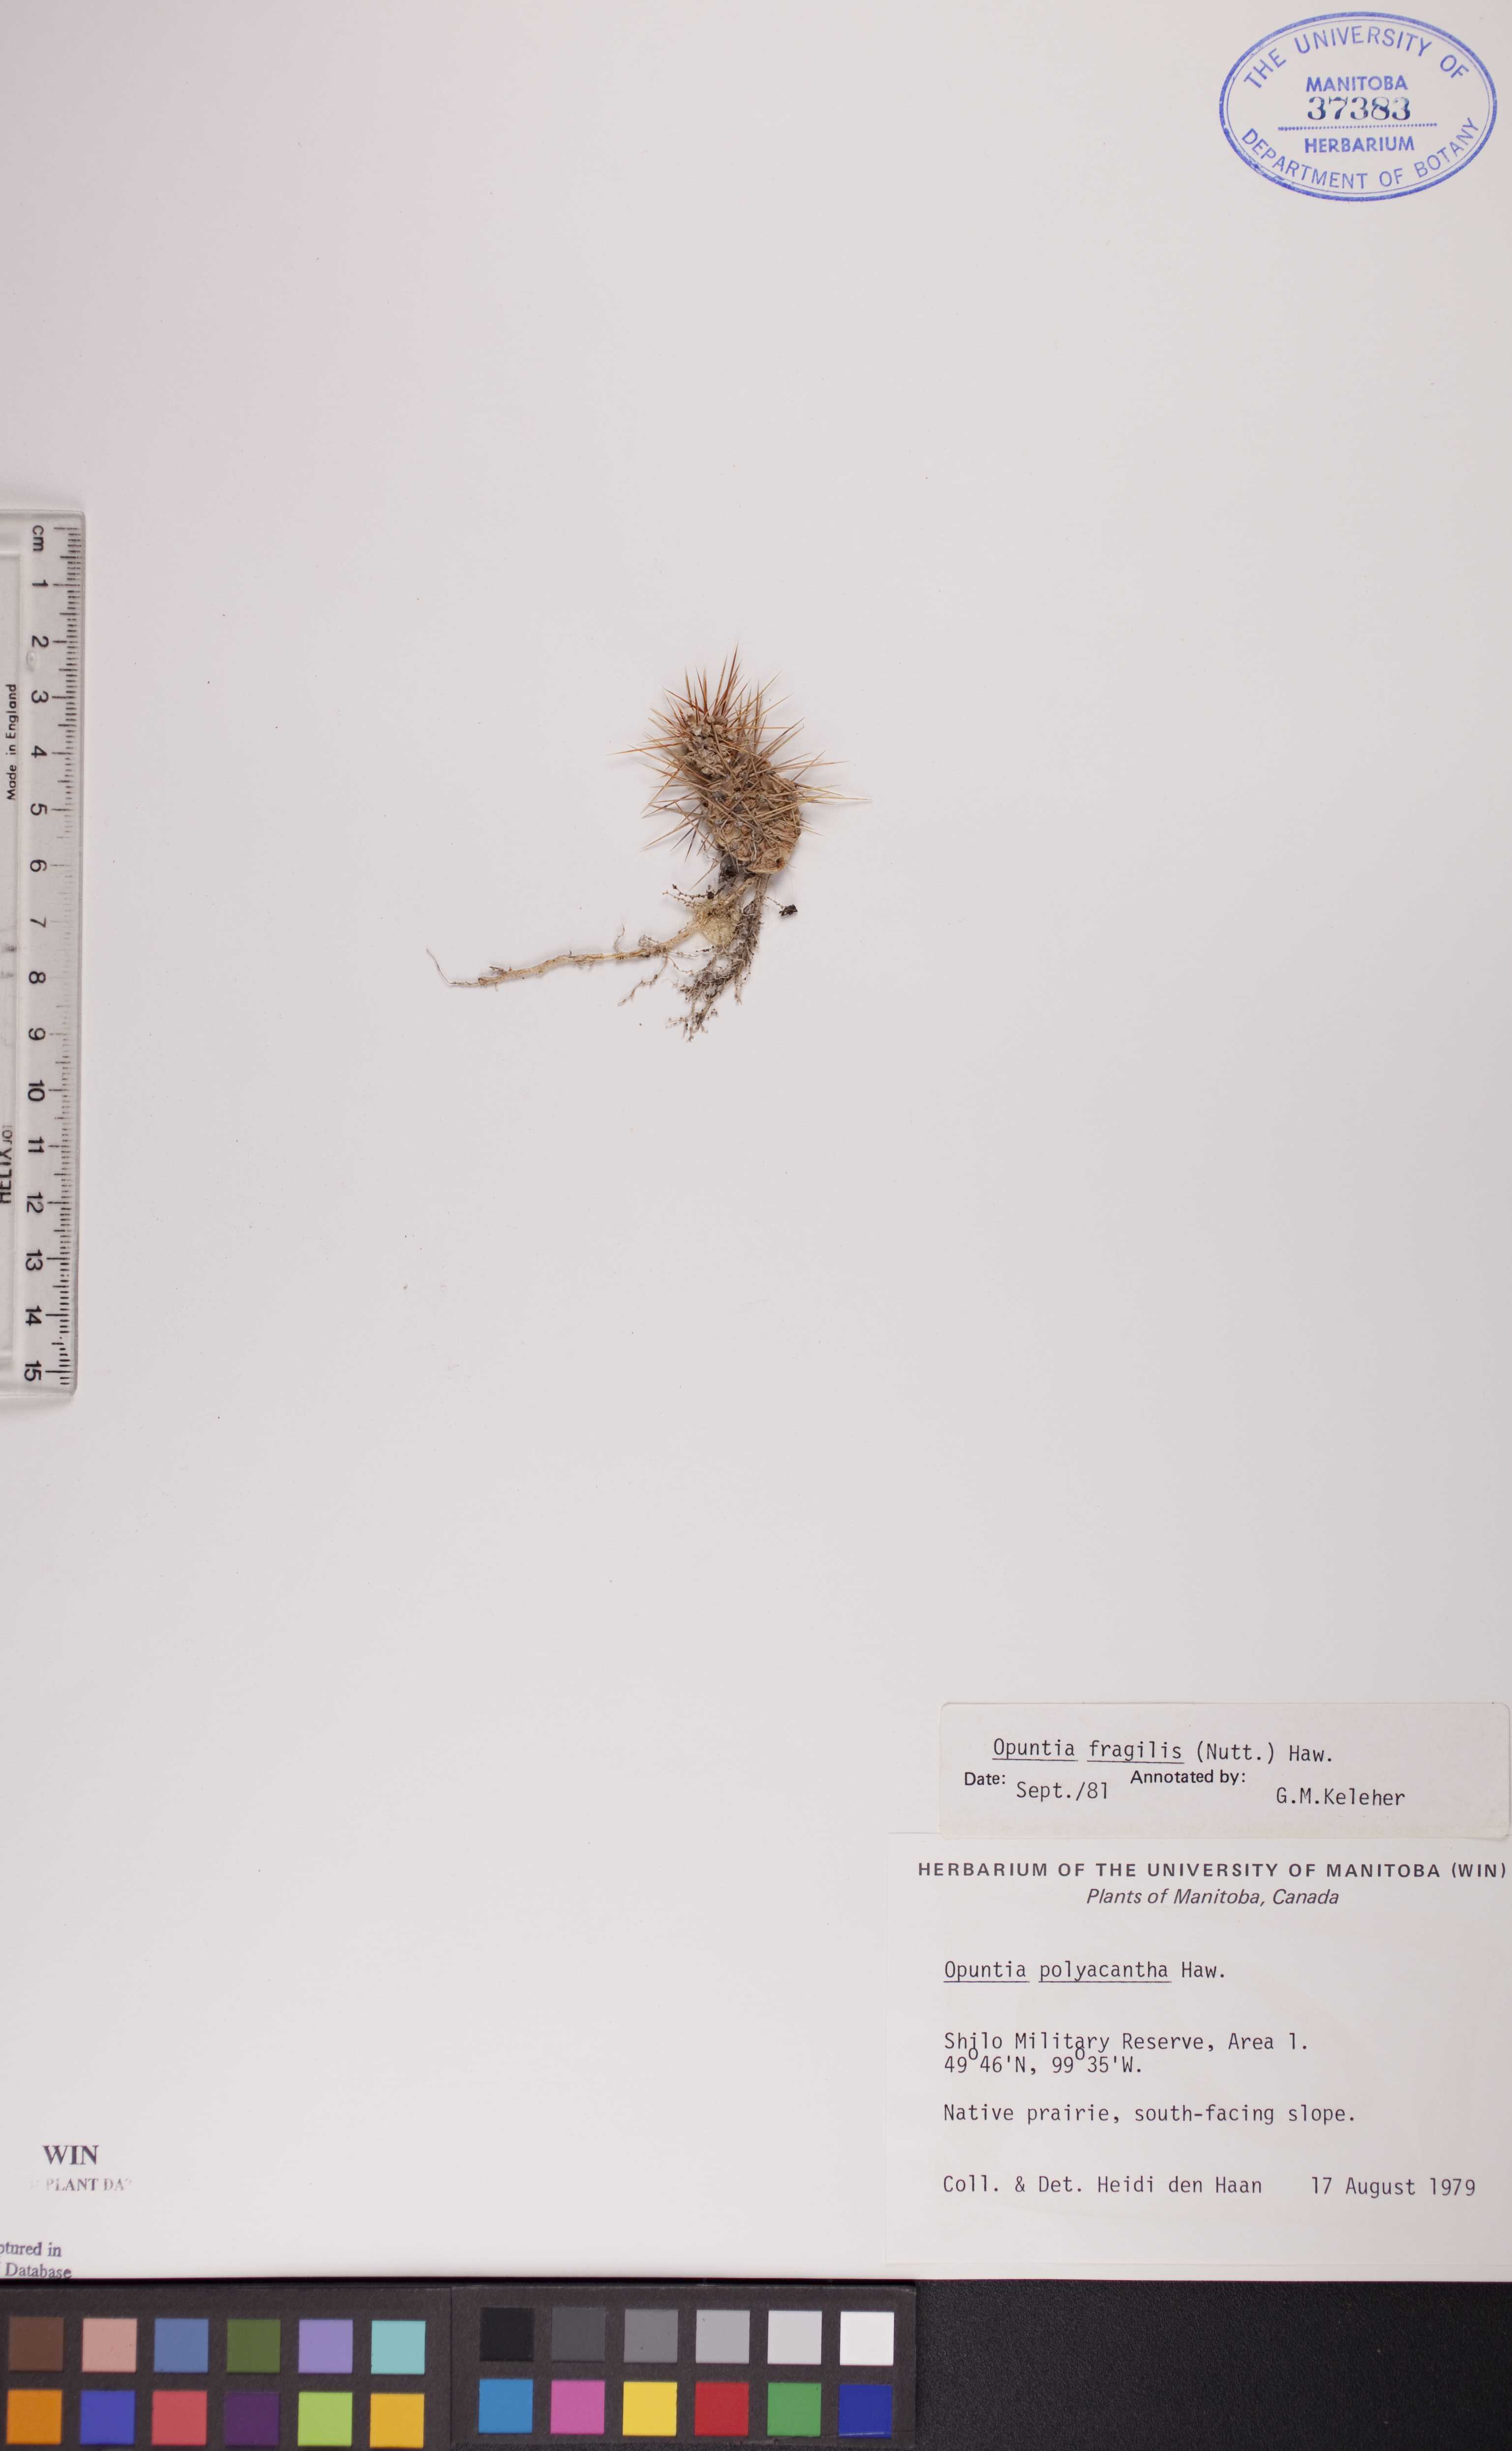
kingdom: Plantae
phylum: Tracheophyta
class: Magnoliopsida
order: Caryophyllales
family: Cactaceae
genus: Opuntia
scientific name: Opuntia fragilis
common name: Brittle cactus
